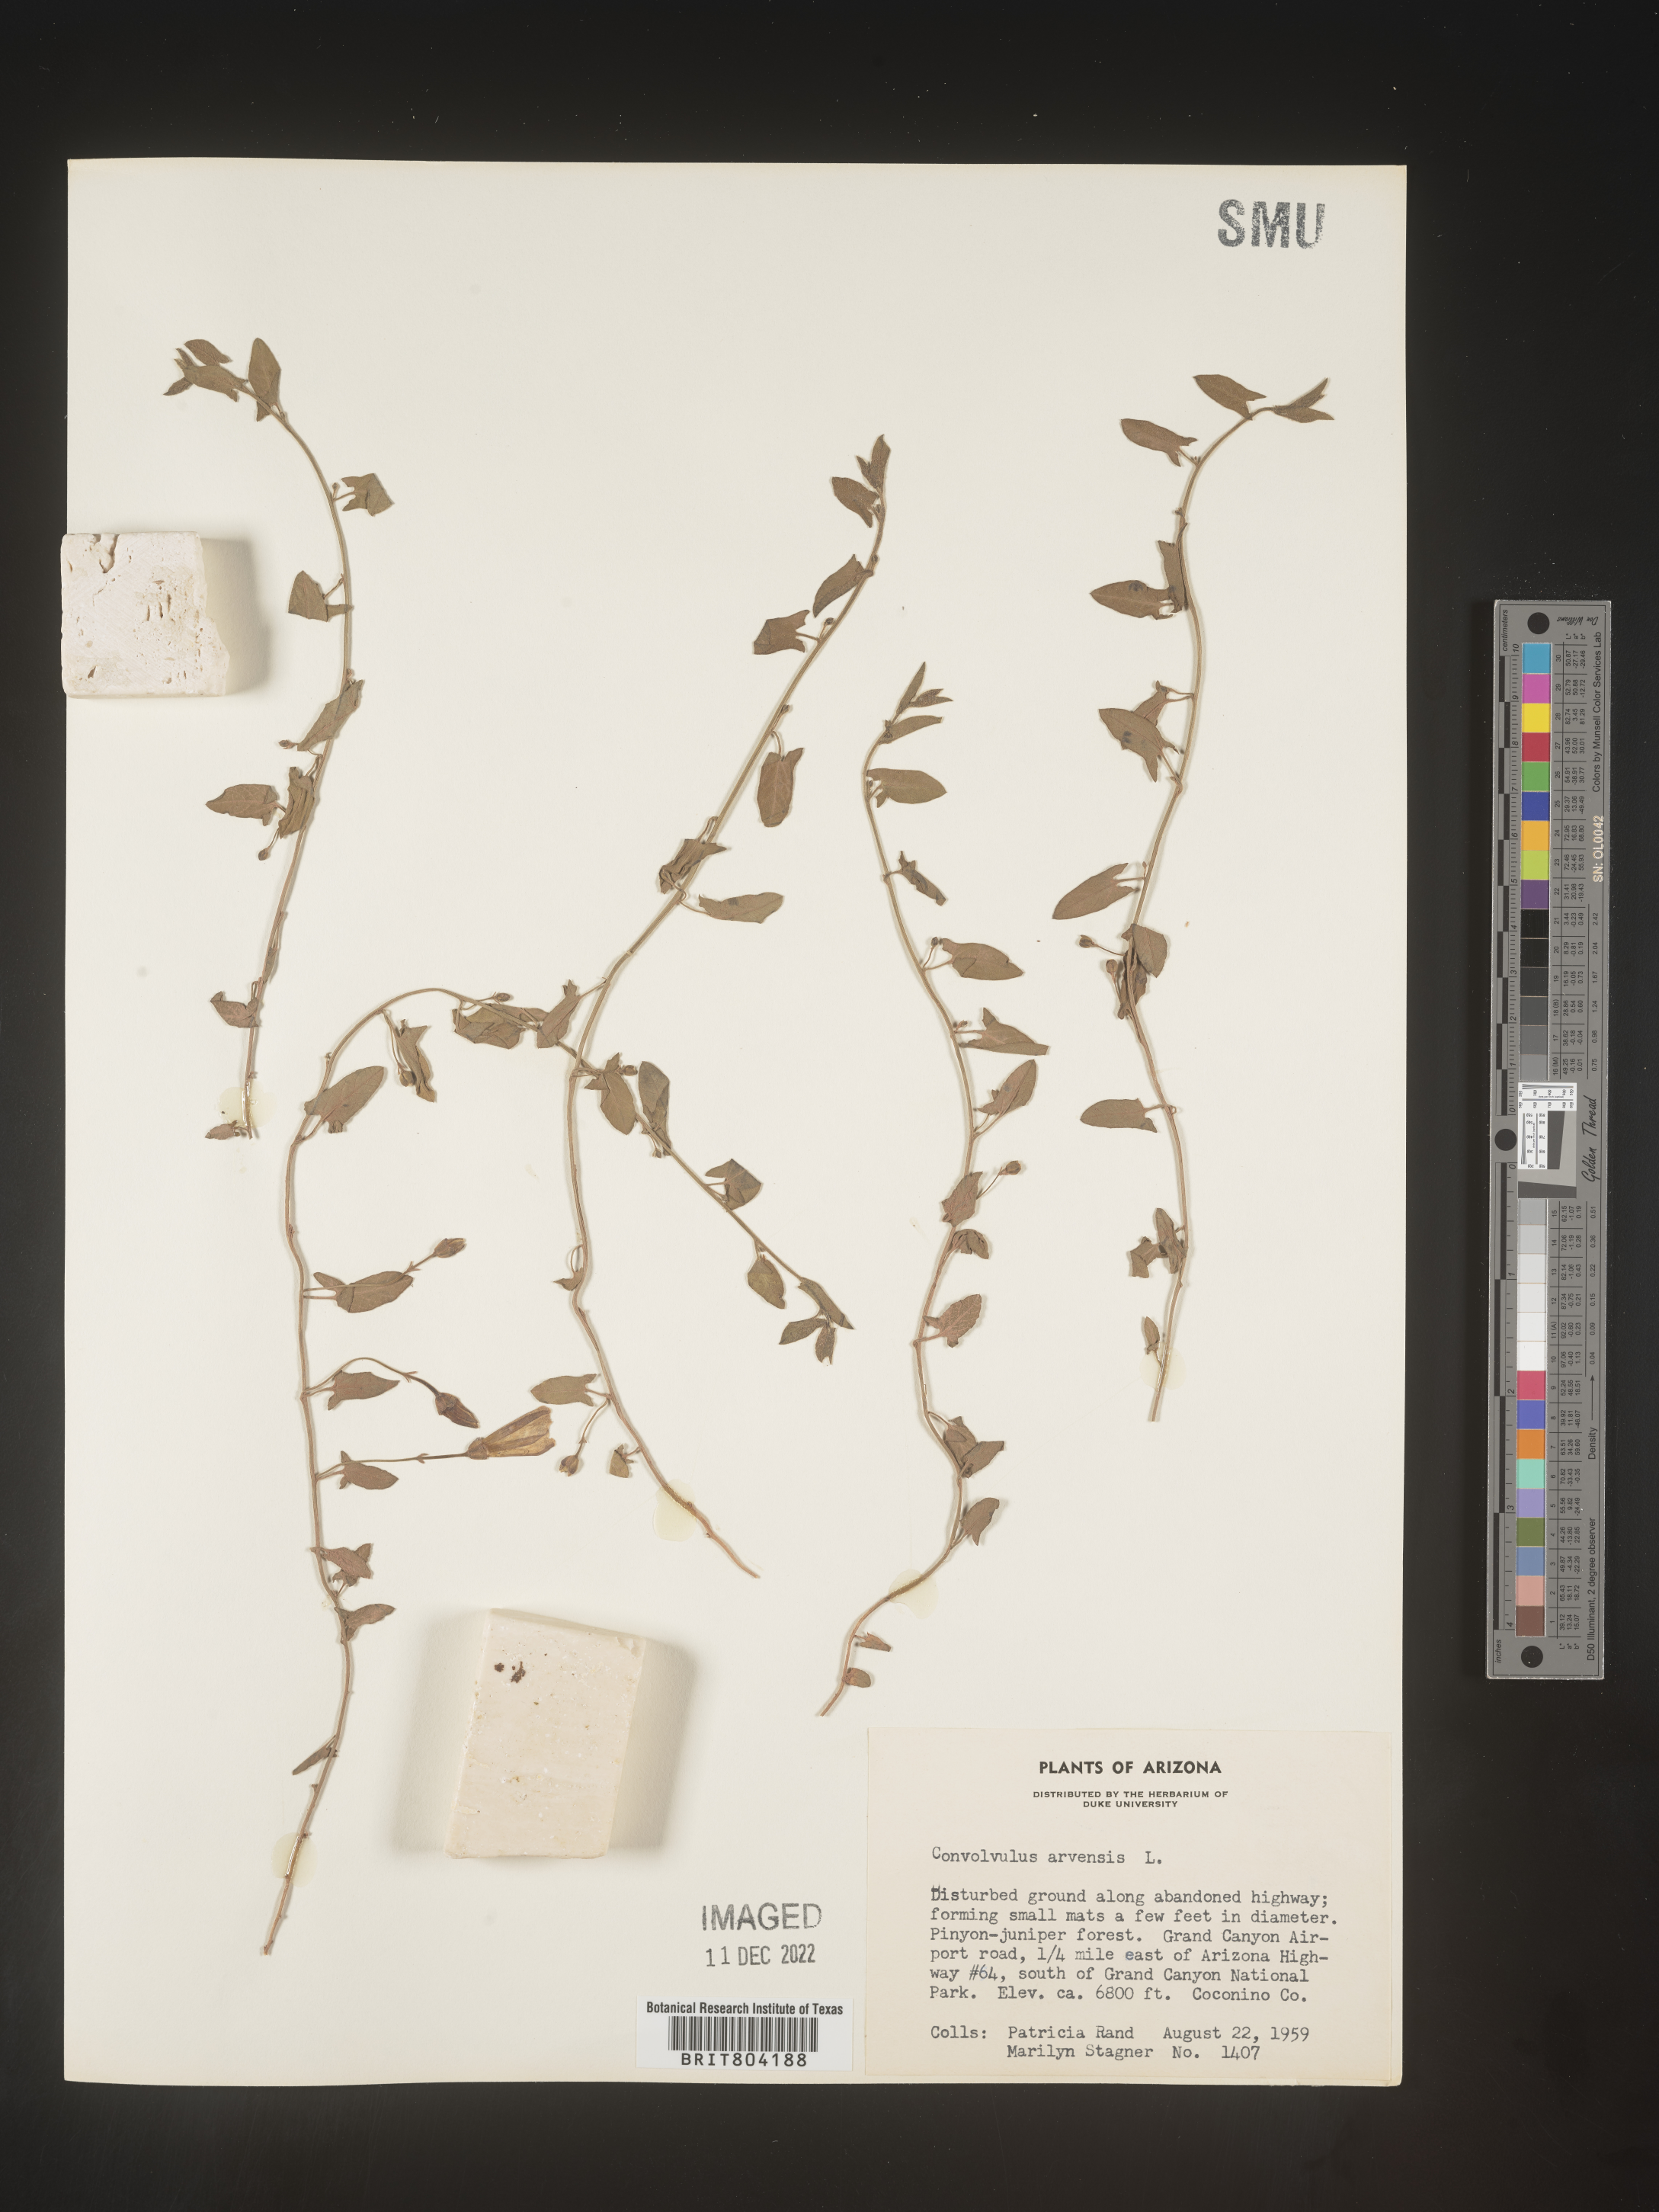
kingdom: Plantae
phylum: Tracheophyta
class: Magnoliopsida
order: Solanales
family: Convolvulaceae
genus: Convolvulus
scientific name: Convolvulus arvensis
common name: Field bindweed
